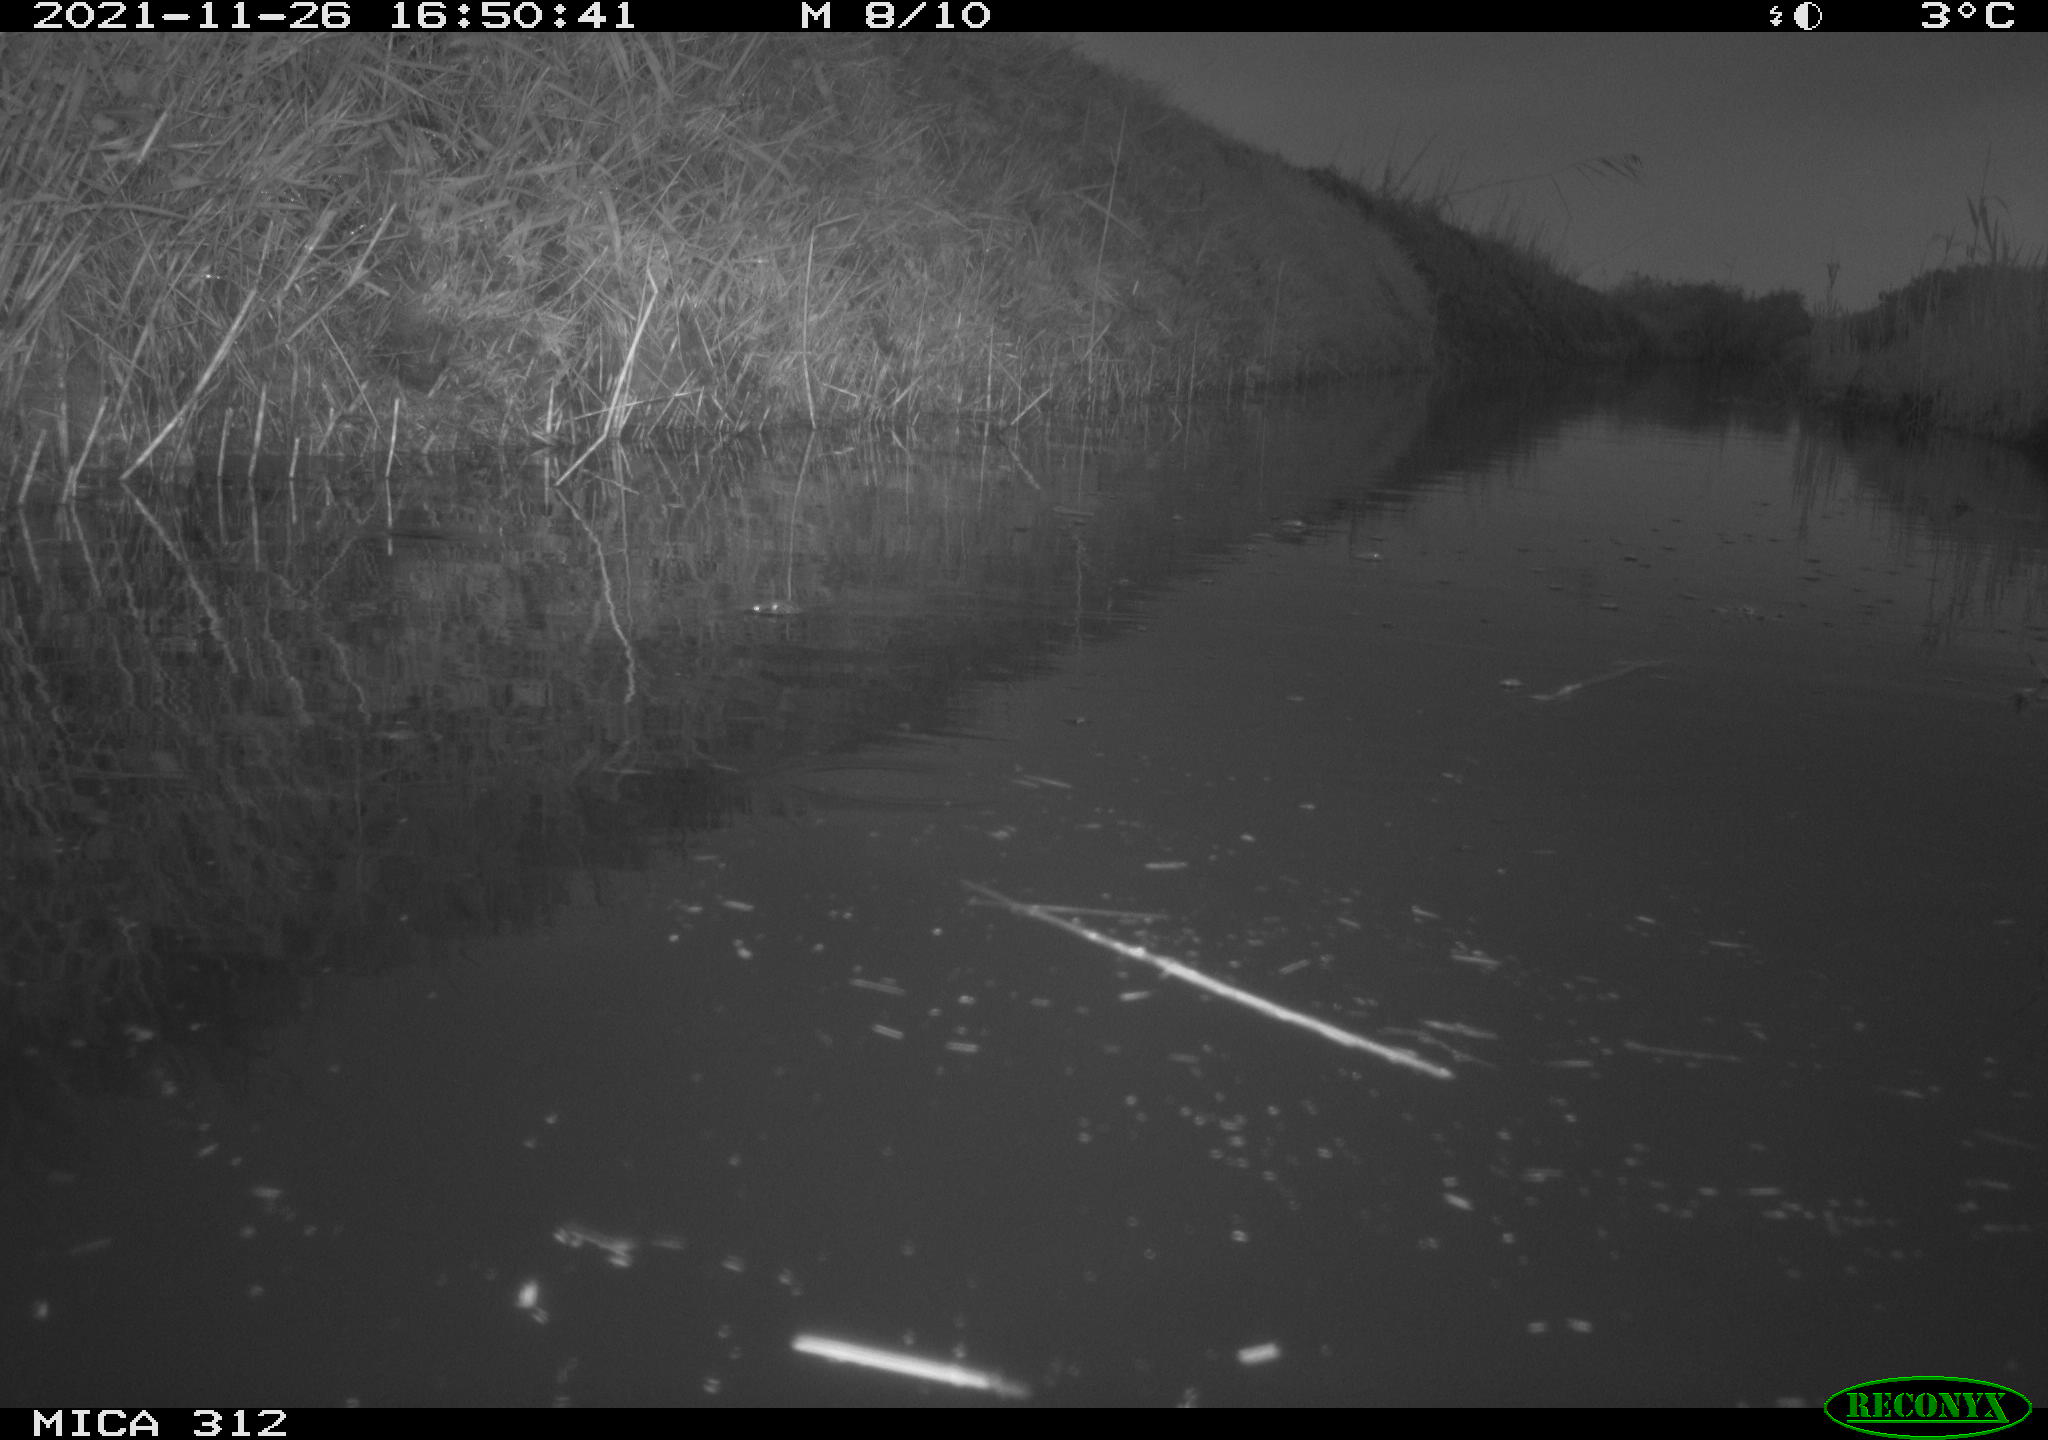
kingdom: Animalia
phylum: Chordata
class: Aves
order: Anseriformes
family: Anatidae
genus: Anas
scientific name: Anas
